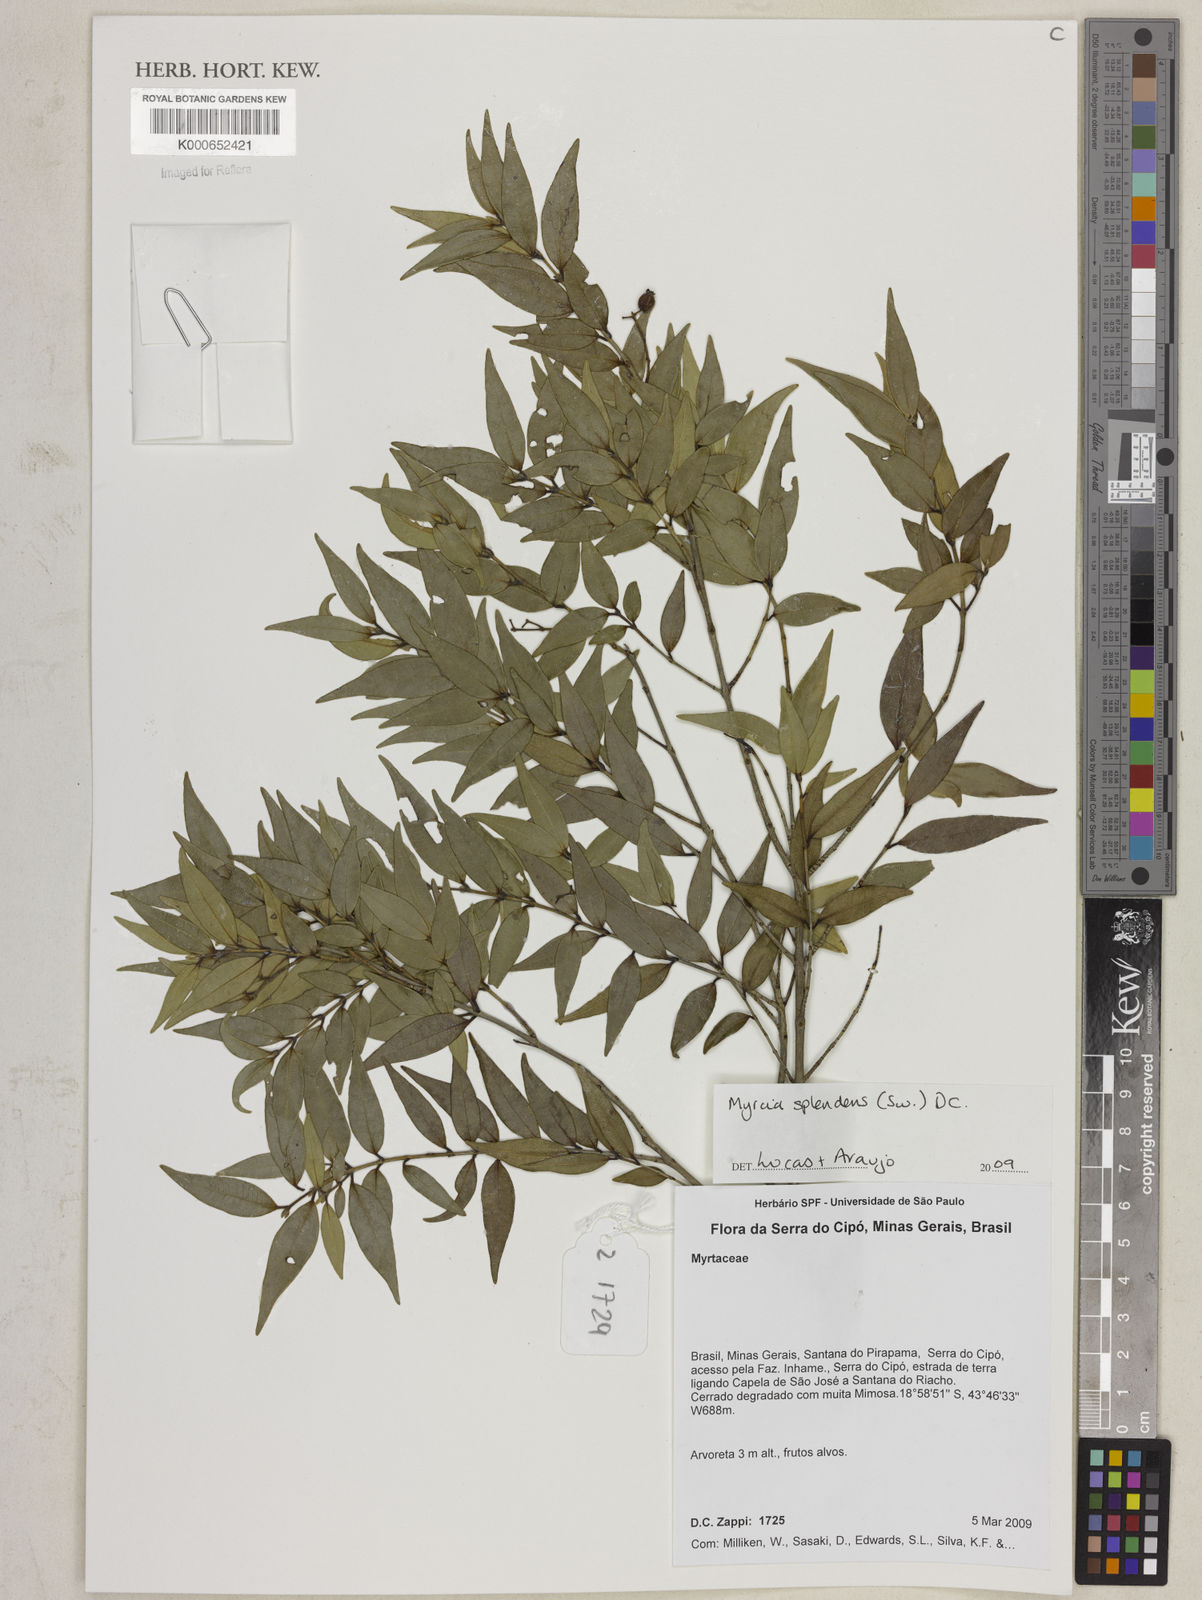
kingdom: Plantae
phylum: Tracheophyta
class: Magnoliopsida
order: Myrtales
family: Myrtaceae
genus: Myrcia
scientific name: Myrcia splendens
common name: Surinam cherry
